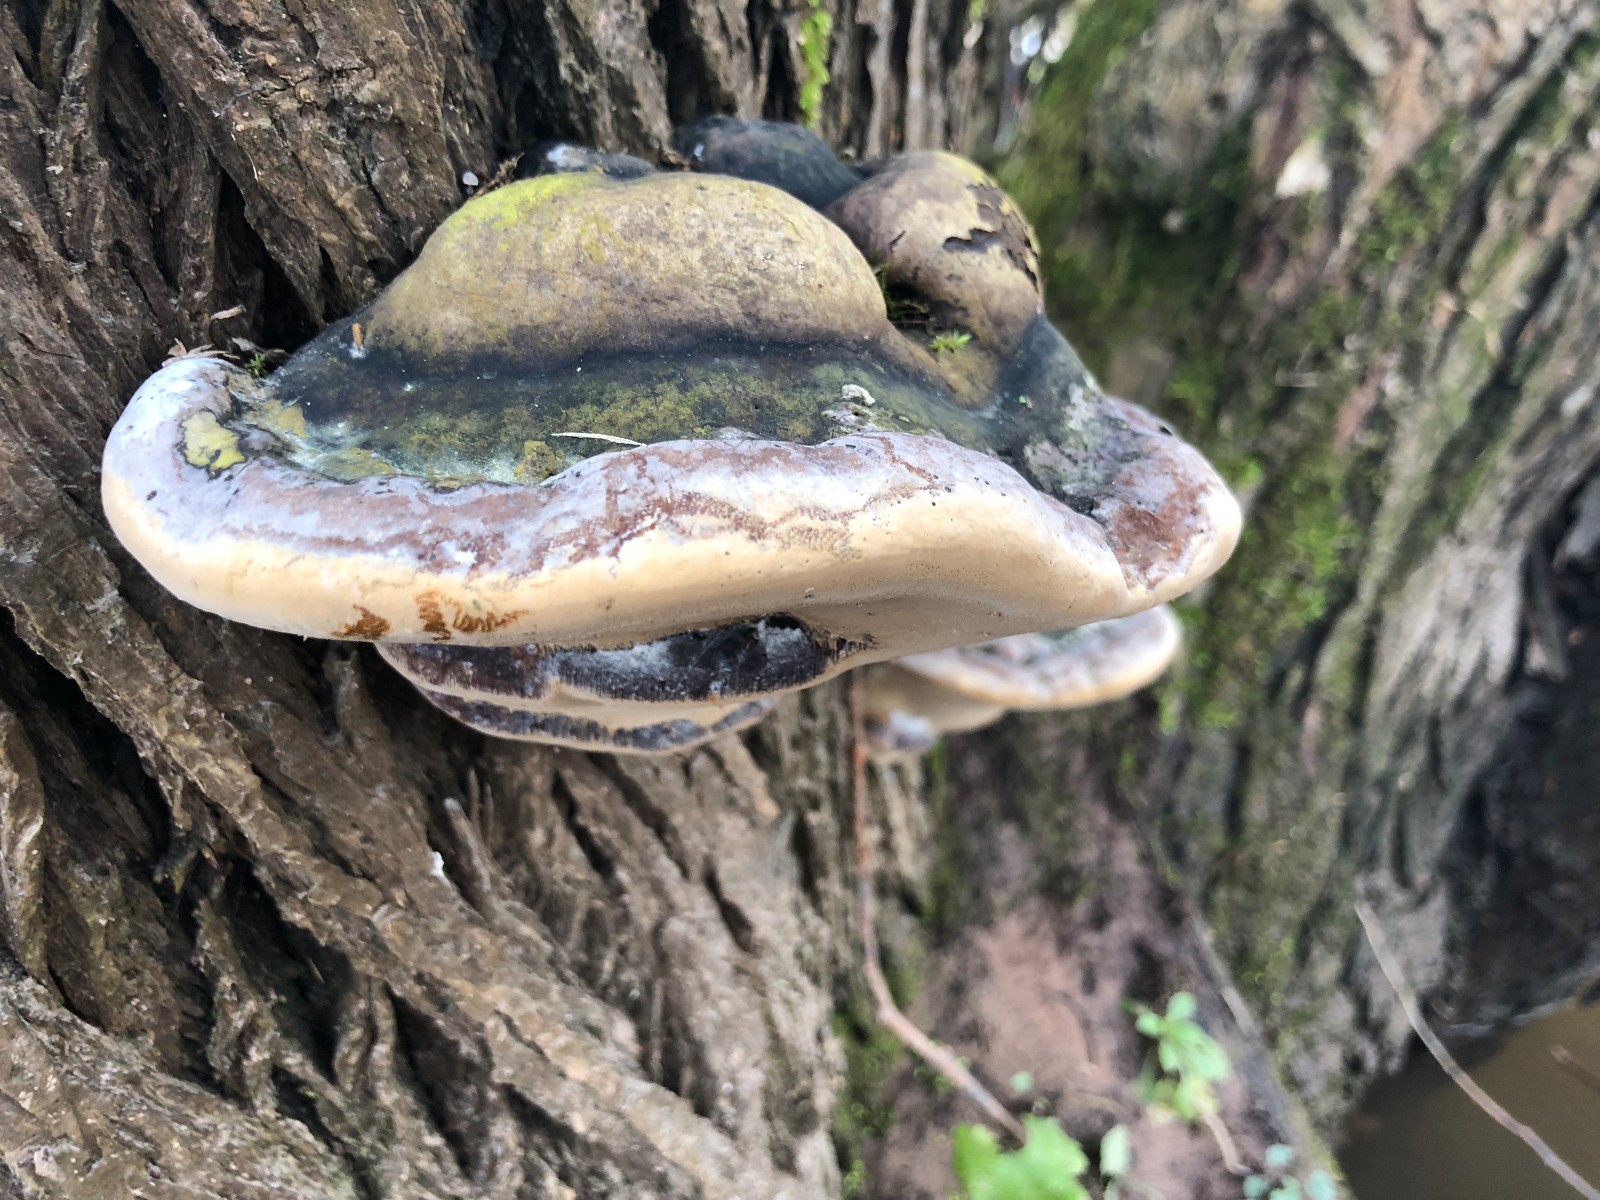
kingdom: Fungi
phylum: Basidiomycota
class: Agaricomycetes
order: Hymenochaetales
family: Hymenochaetaceae
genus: Phellinus
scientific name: Phellinus igniarius
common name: almindelig ildporesvamp
